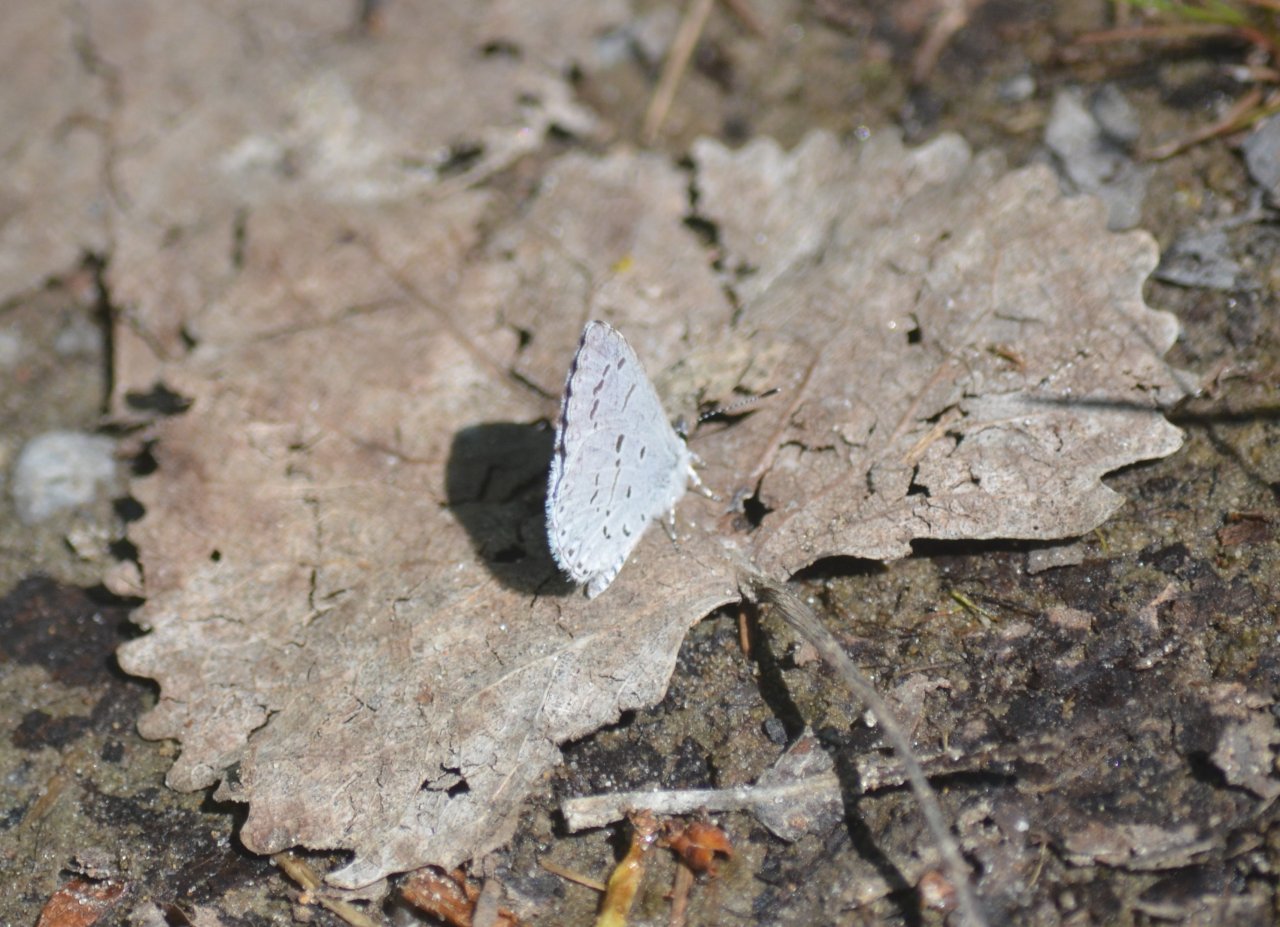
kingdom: Animalia
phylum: Arthropoda
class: Insecta
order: Lepidoptera
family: Lycaenidae
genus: Celastrina
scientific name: Celastrina
